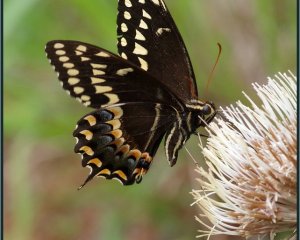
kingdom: Animalia
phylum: Arthropoda
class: Insecta
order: Lepidoptera
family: Papilionidae
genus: Pterourus
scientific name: Pterourus palamedes
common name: Palamedes Swallowtail
